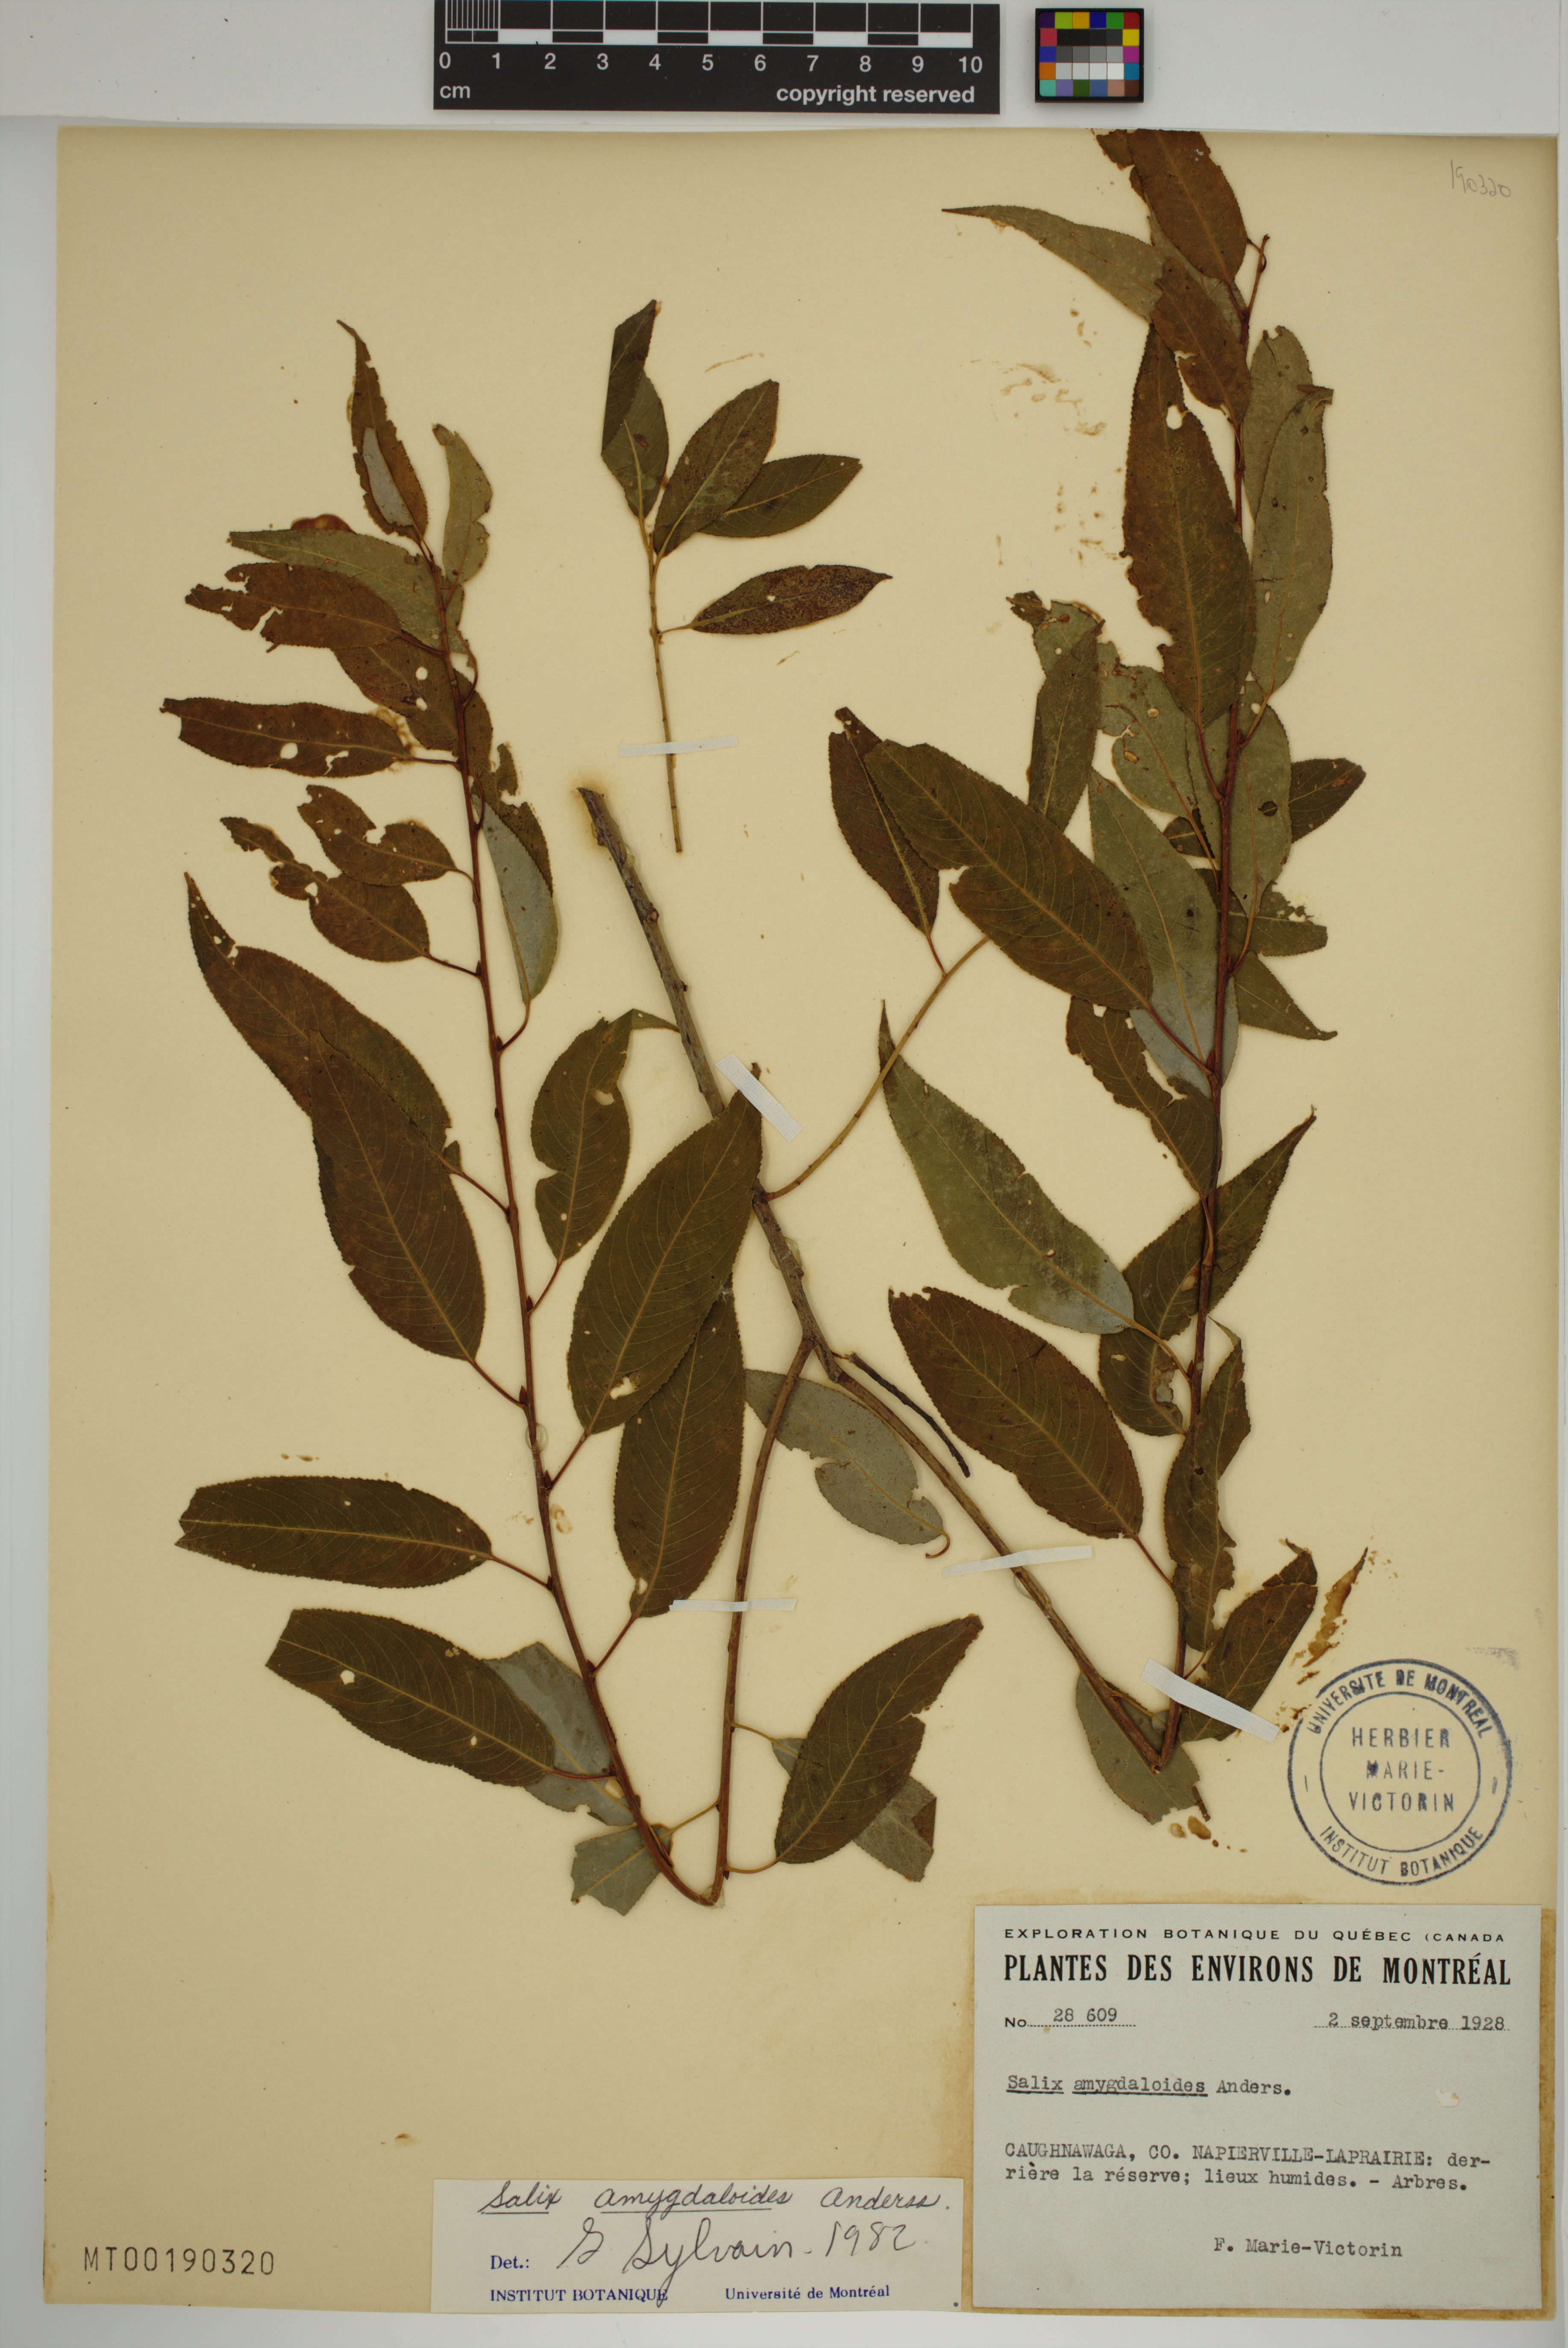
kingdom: Plantae
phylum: Tracheophyta
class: Magnoliopsida
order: Malpighiales
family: Salicaceae
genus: Salix
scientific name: Salix amygdaloides
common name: Peach leaf willow
